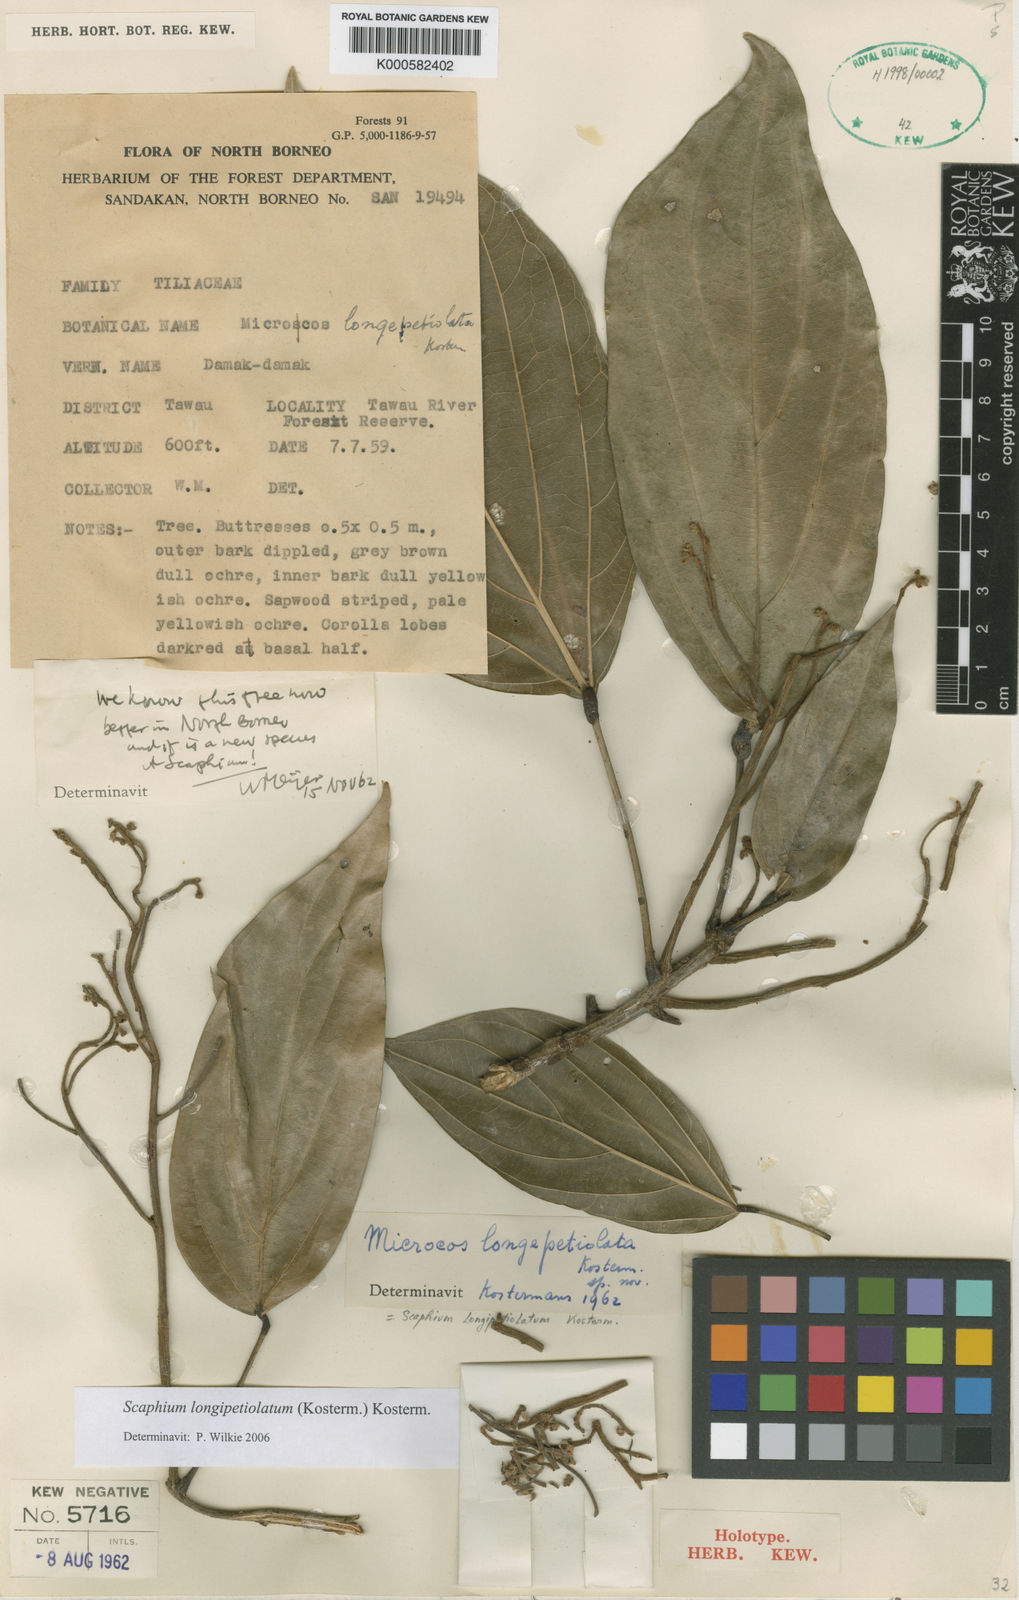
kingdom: Plantae
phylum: Tracheophyta
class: Magnoliopsida
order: Malvales
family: Malvaceae
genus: Scaphium
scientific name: Scaphium
